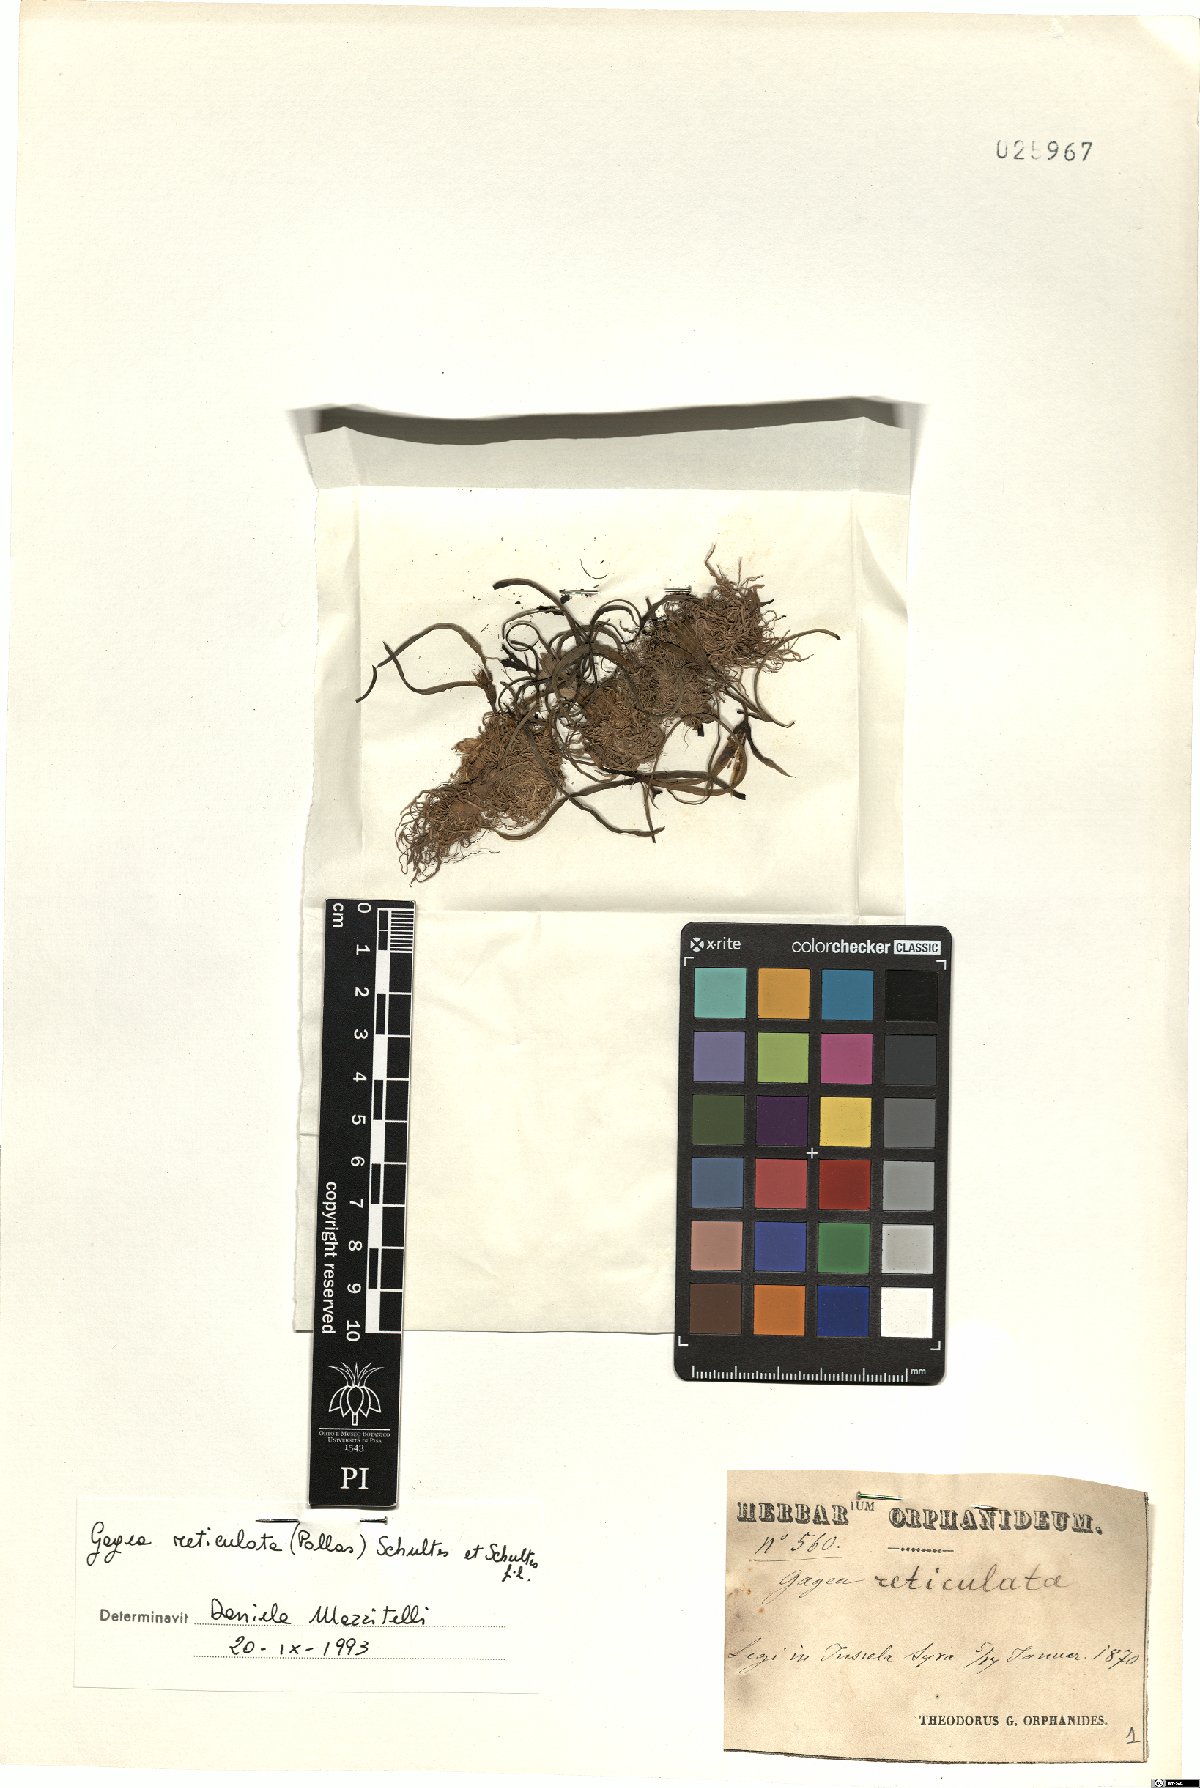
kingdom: Plantae
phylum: Tracheophyta
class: Liliopsida
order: Liliales
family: Liliaceae
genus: Gagea
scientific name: Gagea reticulata
